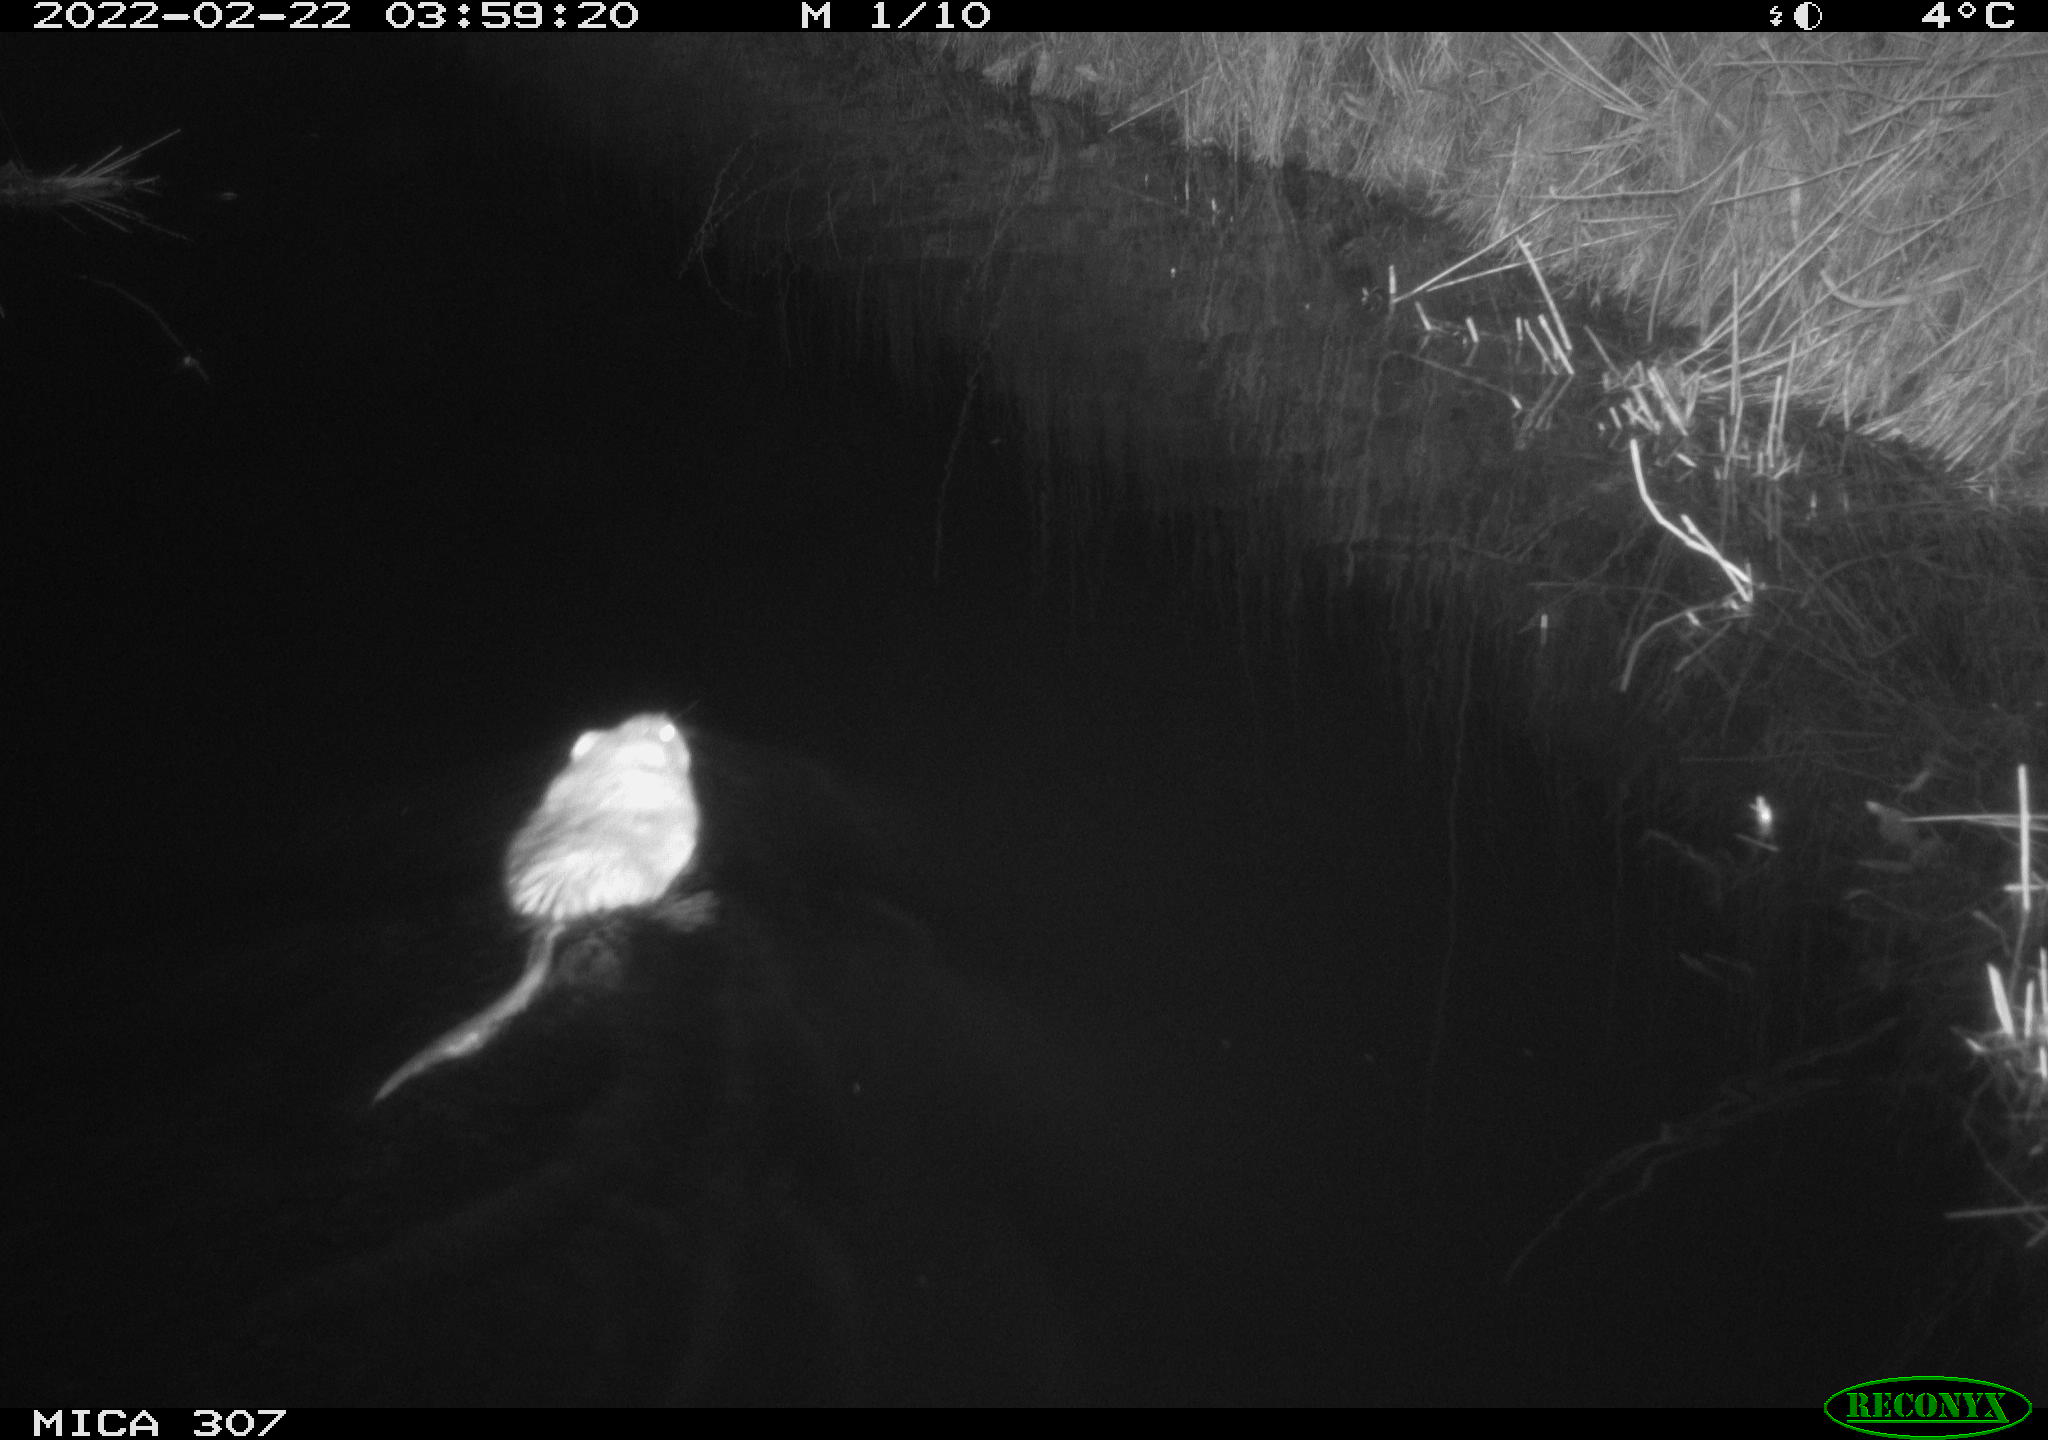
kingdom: Animalia
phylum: Chordata
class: Mammalia
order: Rodentia
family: Cricetidae
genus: Ondatra
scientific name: Ondatra zibethicus
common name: Muskrat
